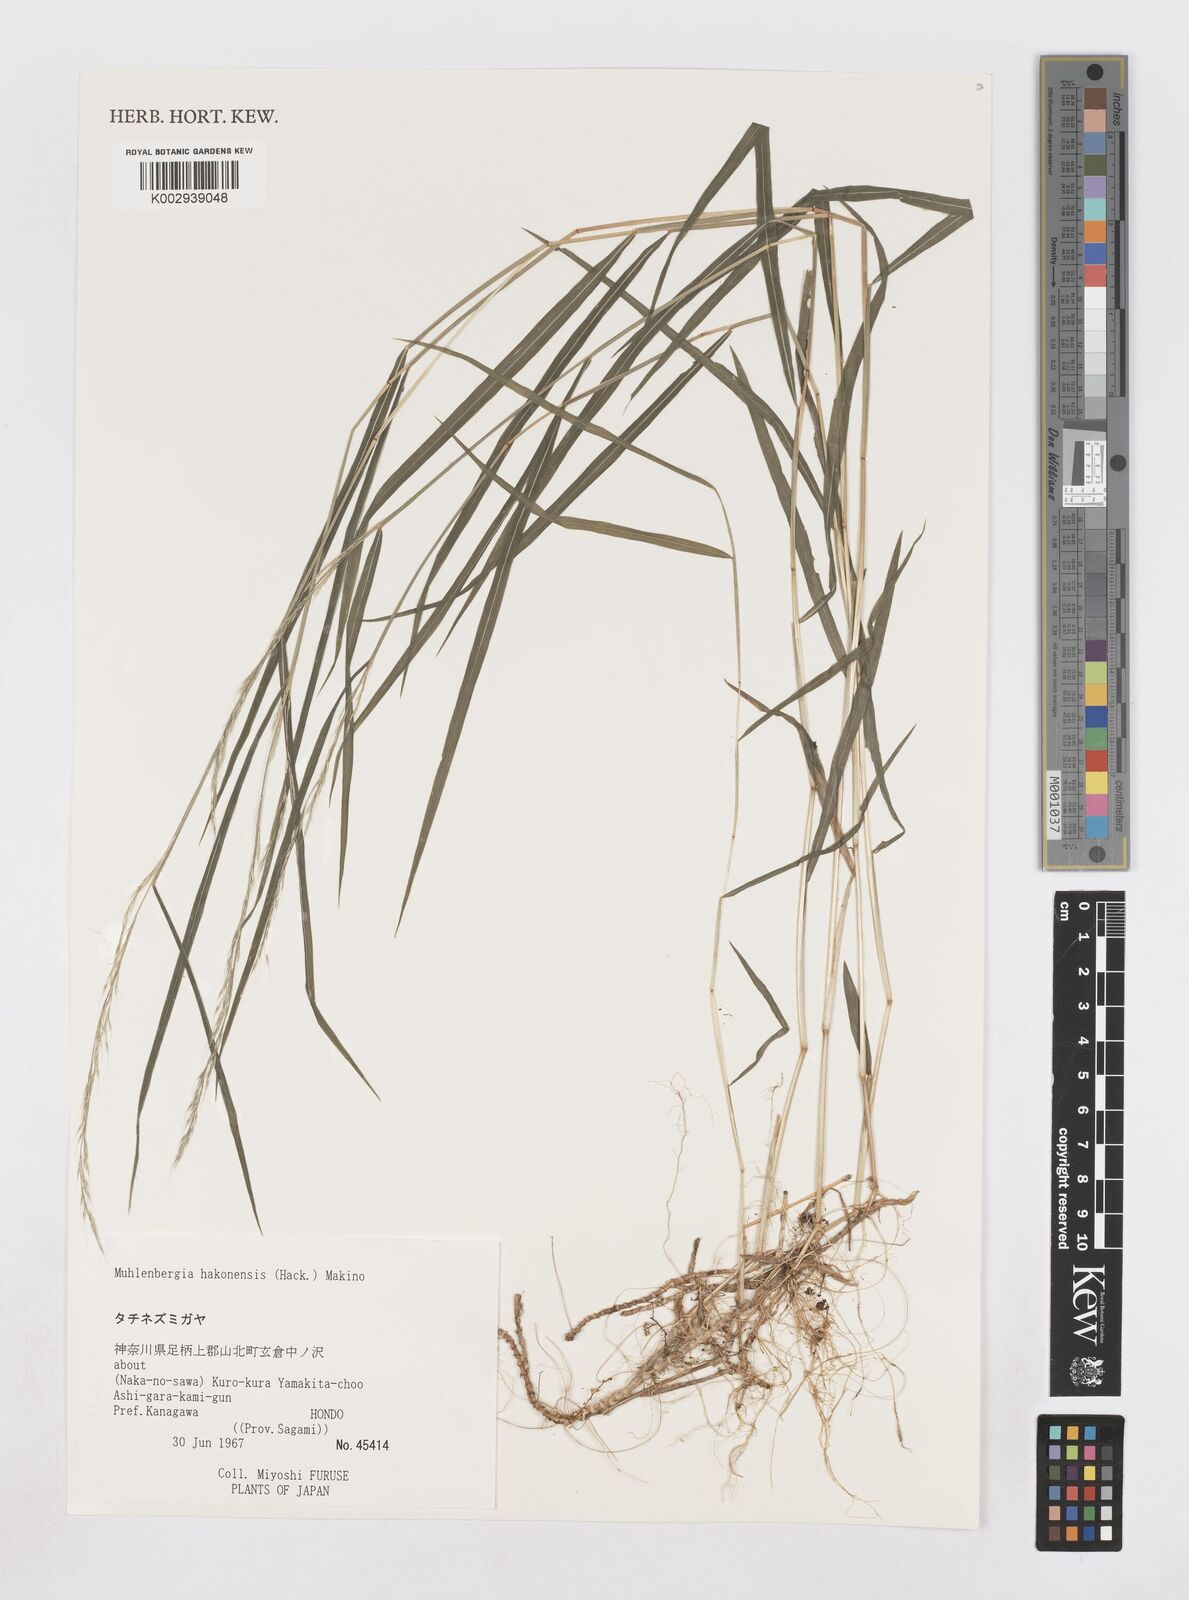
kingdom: Plantae
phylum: Tracheophyta
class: Liliopsida
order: Poales
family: Poaceae
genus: Muhlenbergia
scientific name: Muhlenbergia hakonensis
